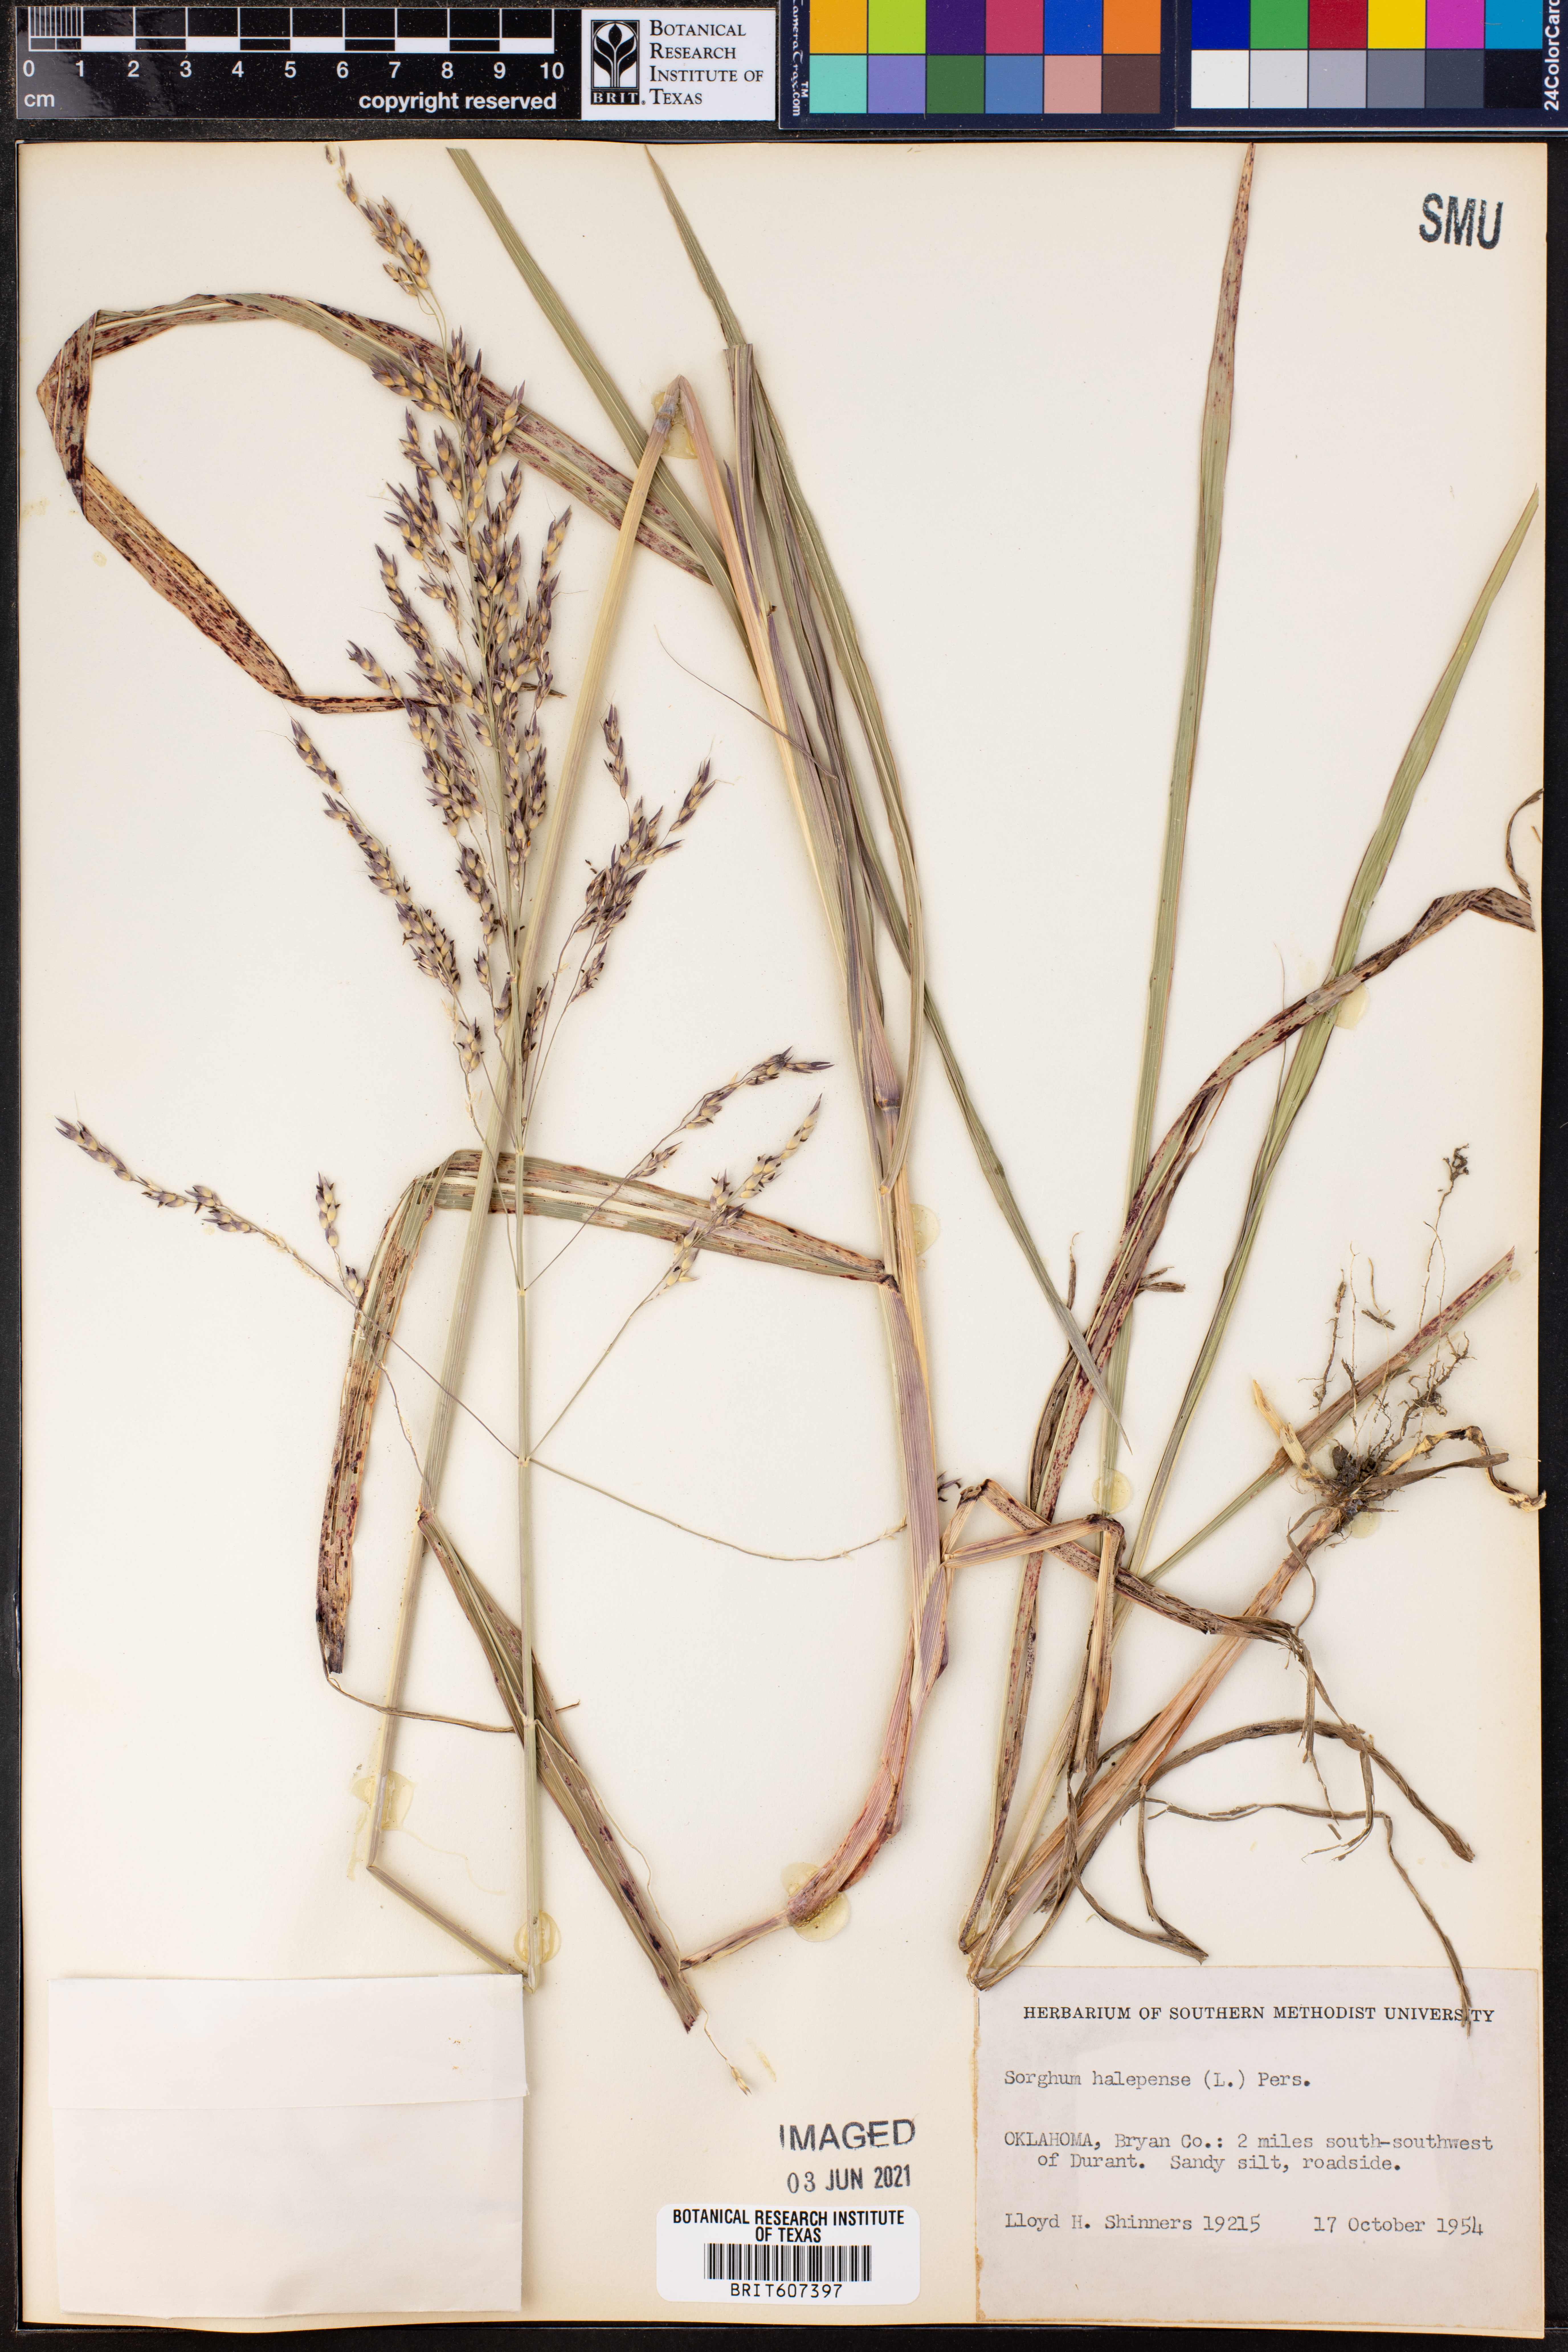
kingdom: Plantae
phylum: Tracheophyta
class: Liliopsida
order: Poales
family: Poaceae
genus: Sorghum
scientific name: Sorghum halepense
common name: Johnson-grass
